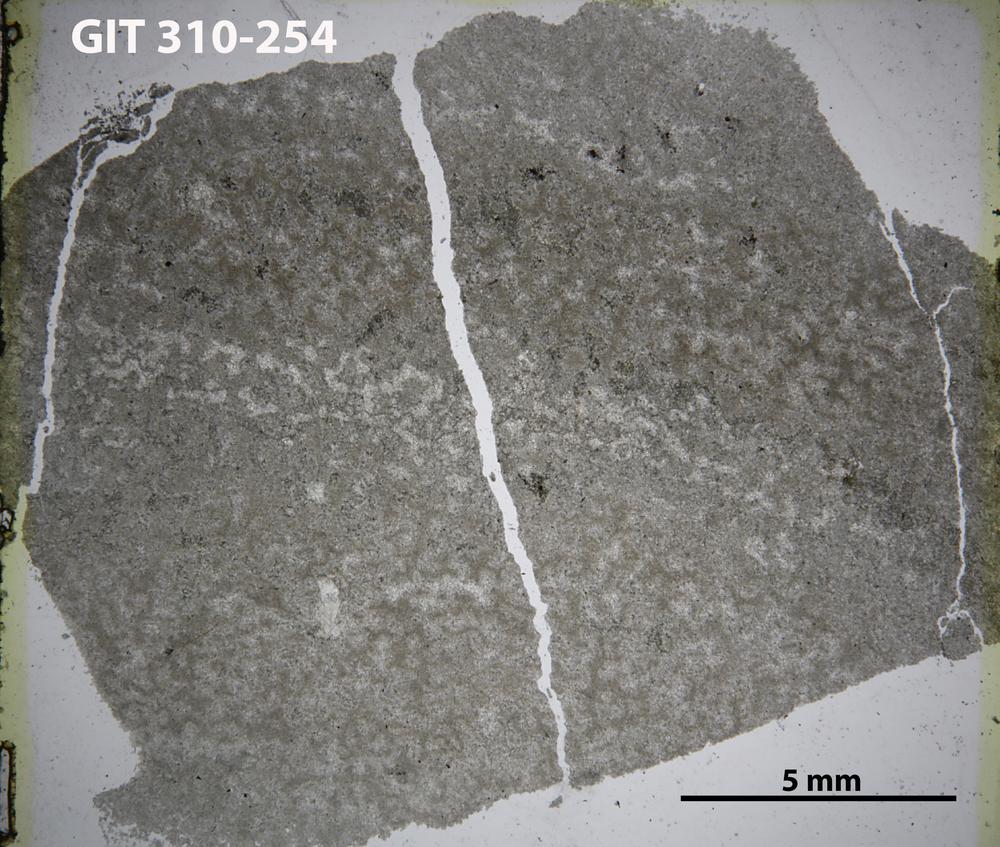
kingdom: Animalia
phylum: Porifera
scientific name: Porifera
